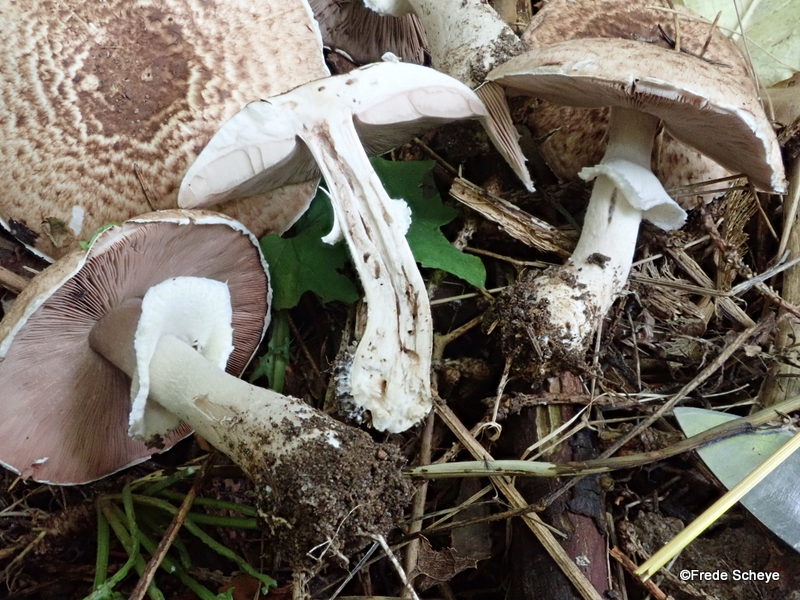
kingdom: Fungi
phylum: Basidiomycota
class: Agaricomycetes
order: Agaricales
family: Agaricaceae
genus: Agaricus
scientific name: Agaricus impudicus
